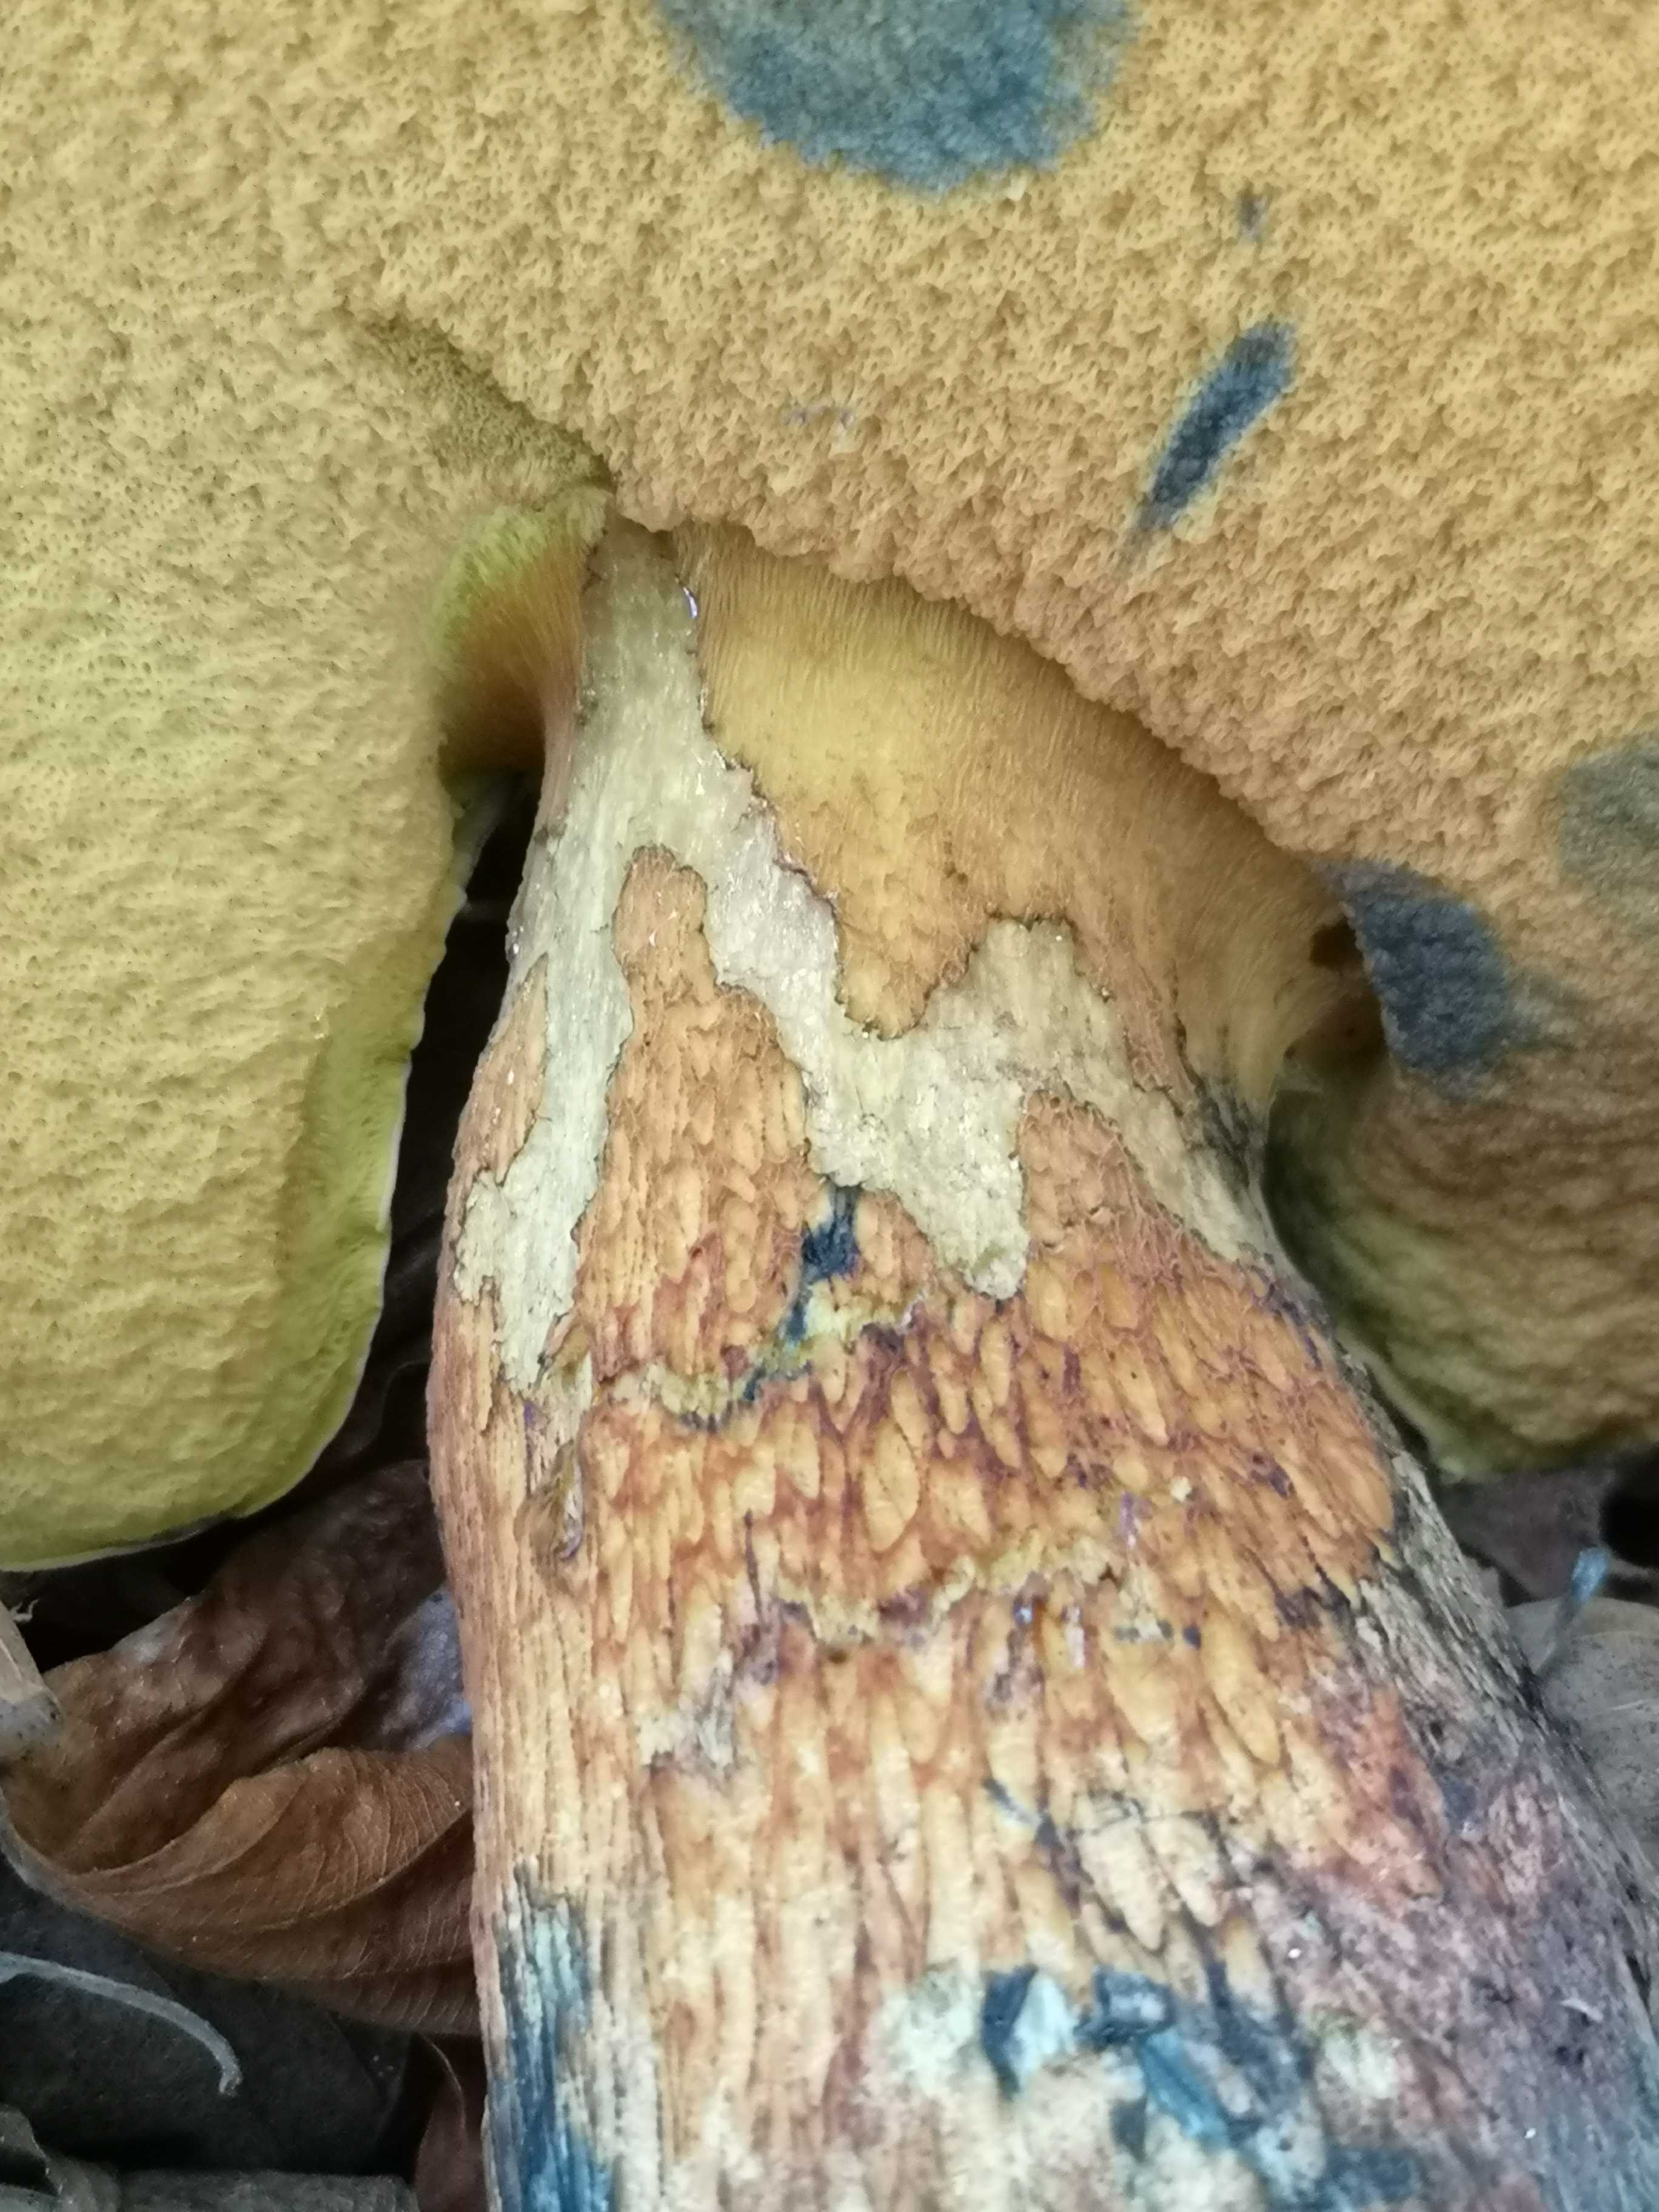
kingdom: Fungi
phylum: Basidiomycota
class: Agaricomycetes
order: Boletales
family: Boletaceae
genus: Suillellus
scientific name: Suillellus luridus
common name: netstokket indigorørhat
